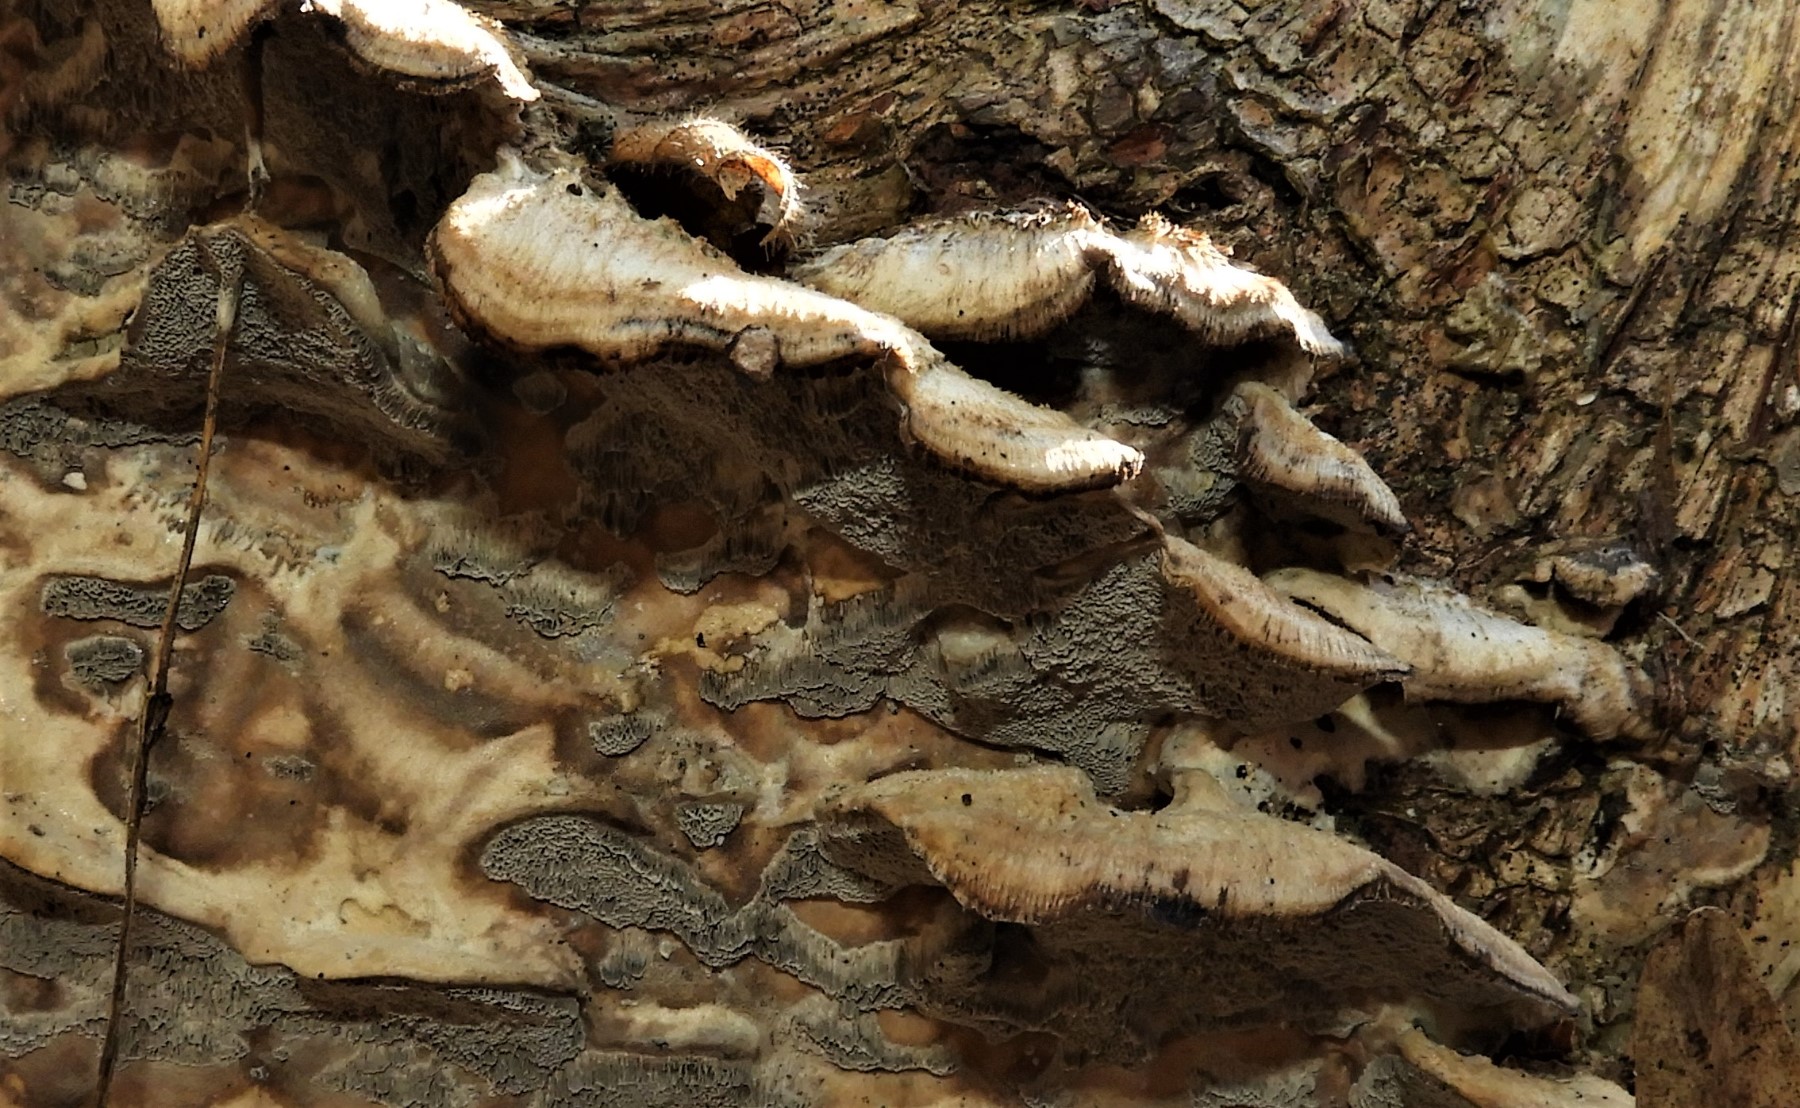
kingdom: Fungi
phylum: Basidiomycota
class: Agaricomycetes
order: Polyporales
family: Phanerochaetaceae
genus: Bjerkandera
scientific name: Bjerkandera adusta
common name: sveden sodporesvamp
